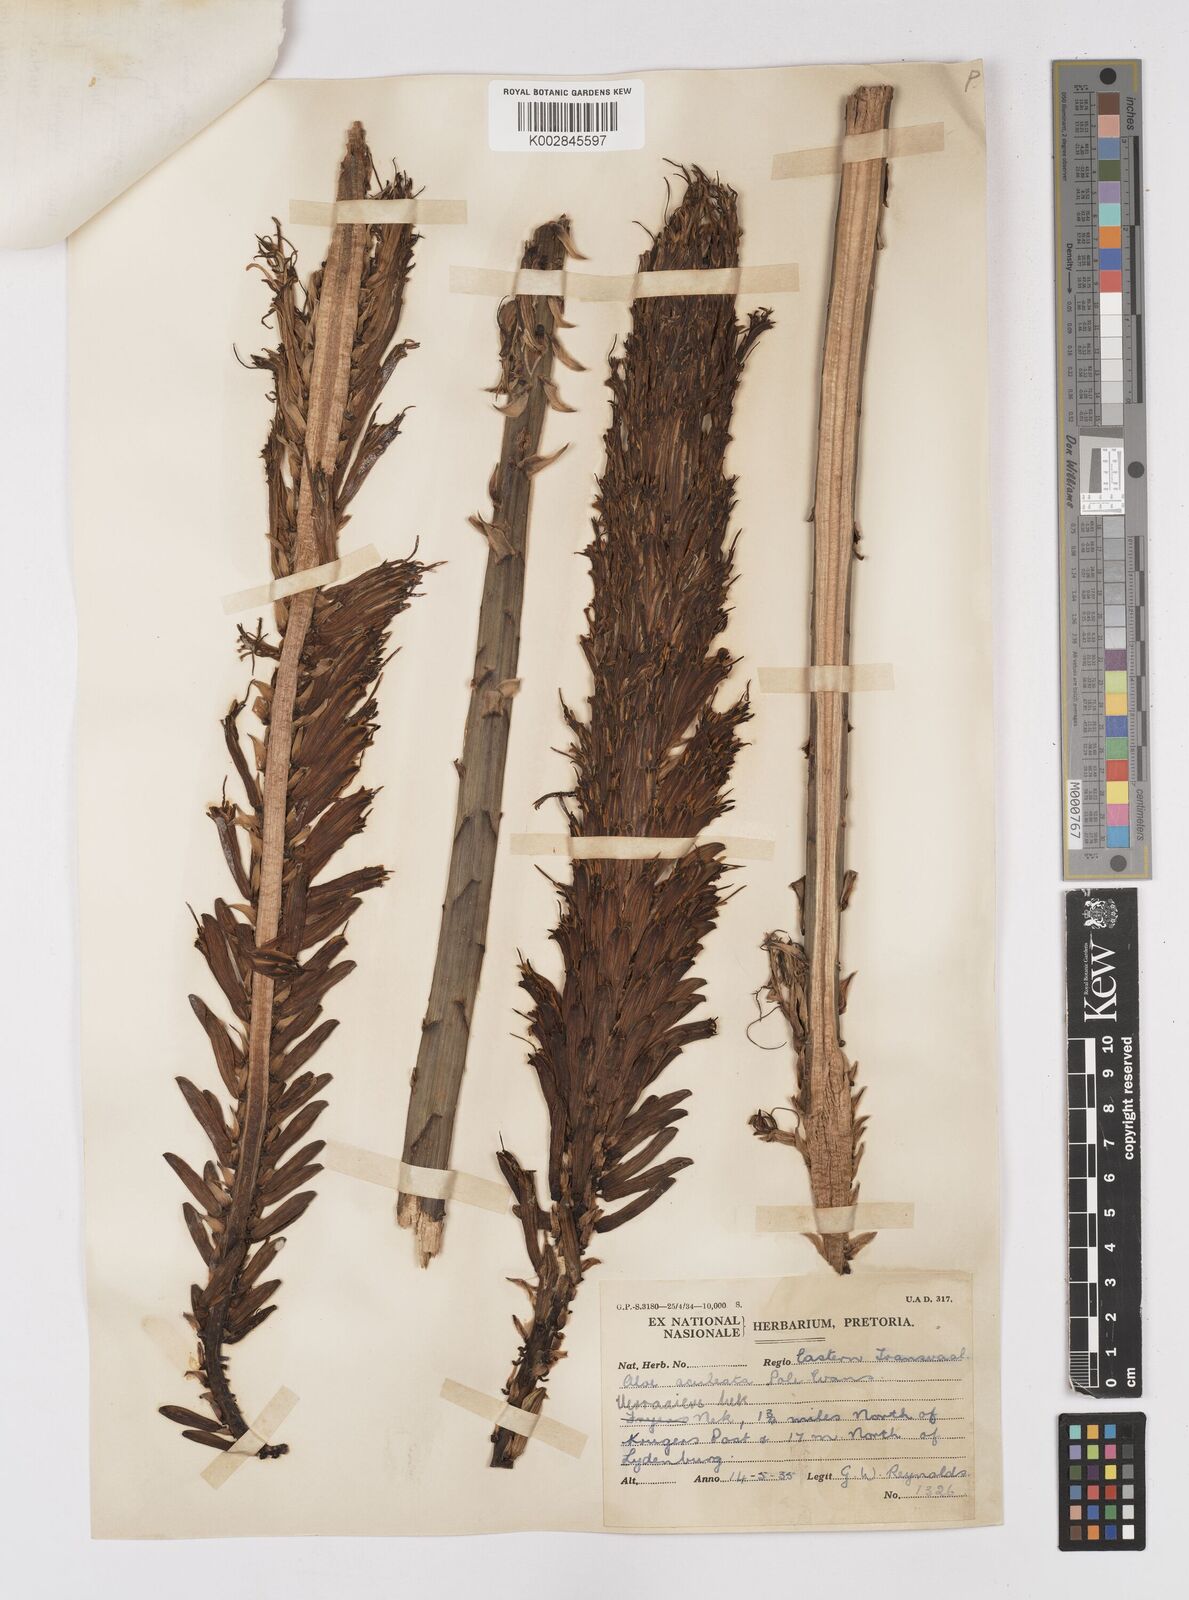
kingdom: Plantae
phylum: Tracheophyta
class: Liliopsida
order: Asparagales
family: Asphodelaceae
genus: Aloe
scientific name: Aloe aculeata
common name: Red hot poker aloe
